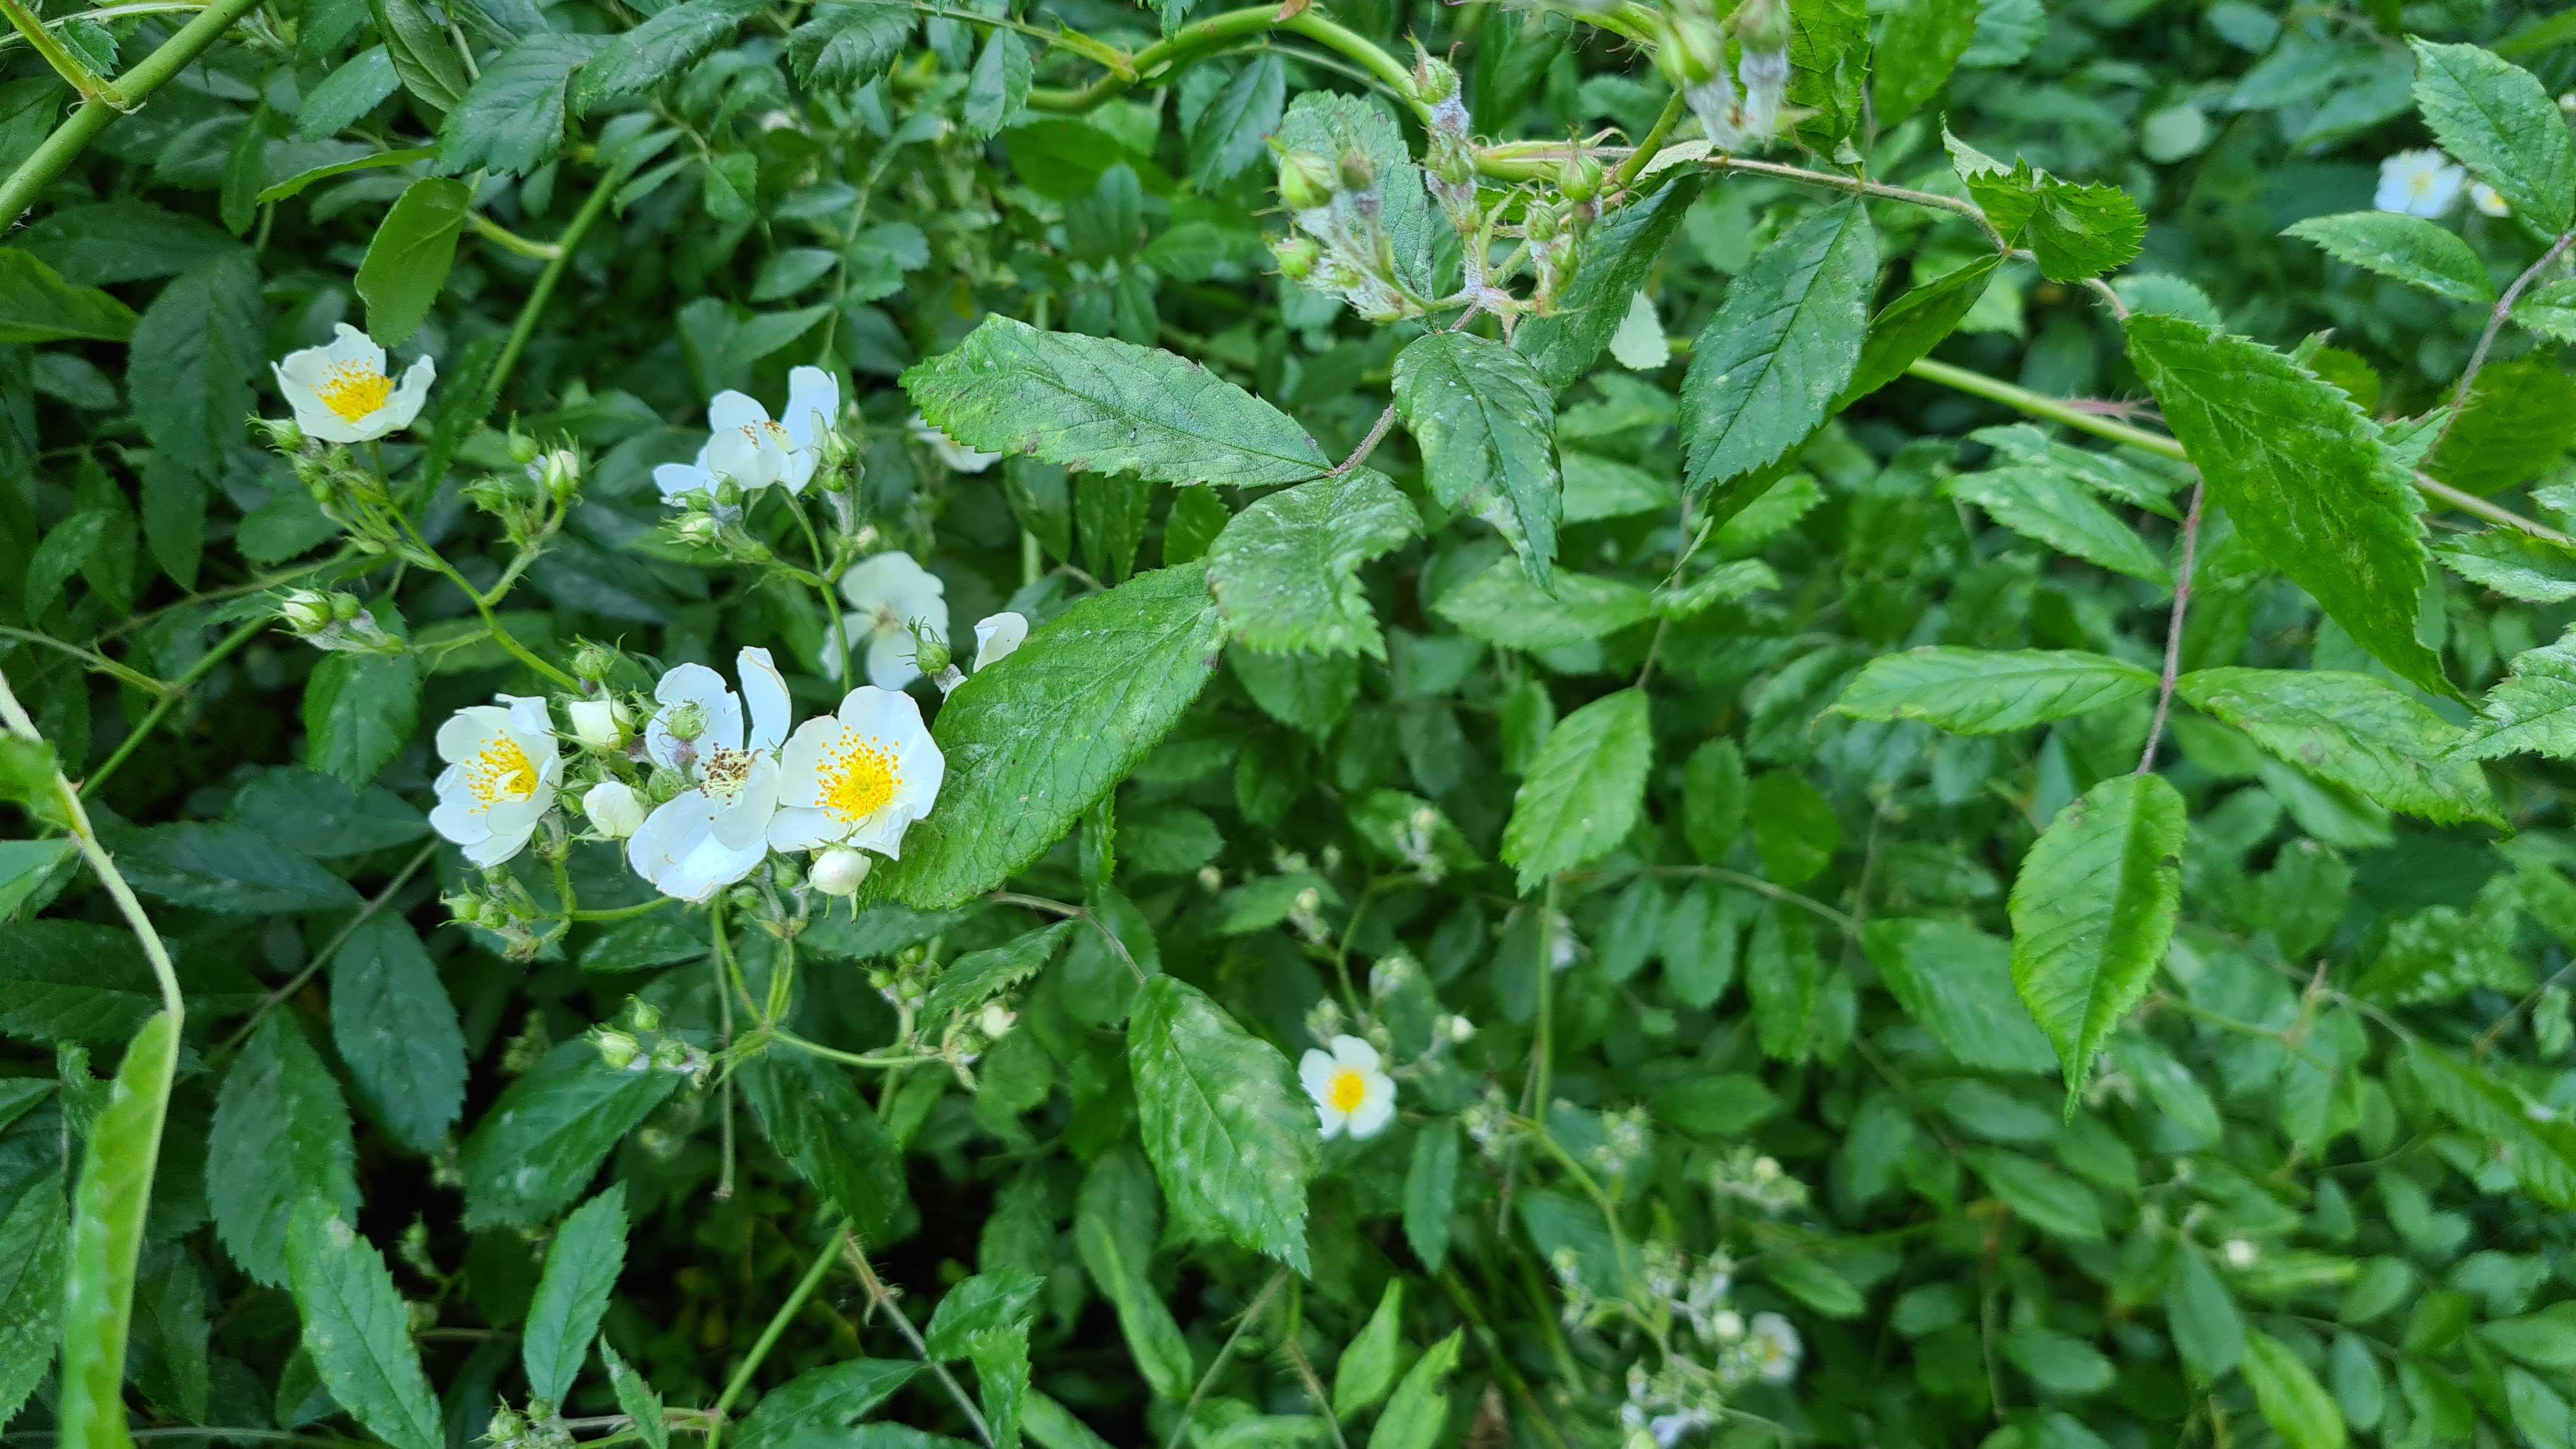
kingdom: Fungi
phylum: Ascomycota
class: Leotiomycetes
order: Helotiales
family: Erysiphaceae
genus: Podosphaera
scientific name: Podosphaera pannosa
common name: Rose mildew
